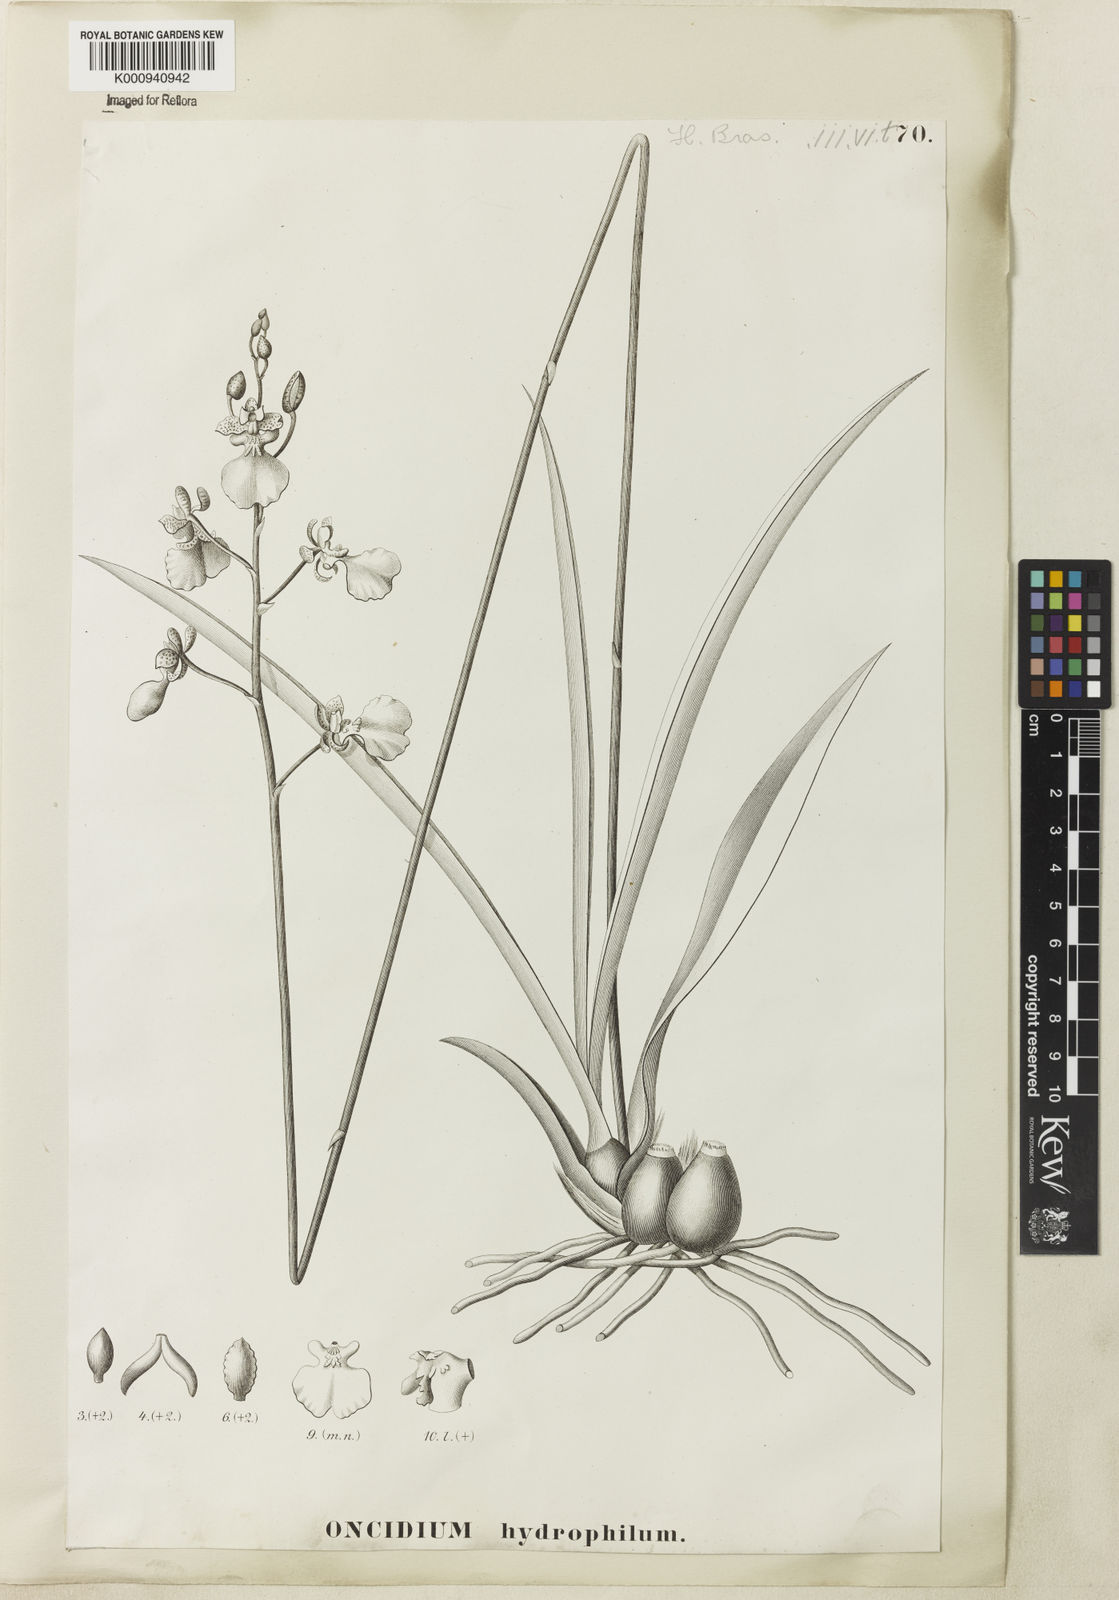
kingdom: Plantae
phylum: Tracheophyta
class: Liliopsida
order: Asparagales
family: Orchidaceae
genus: Gomesa
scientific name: Gomesa hydrophila
